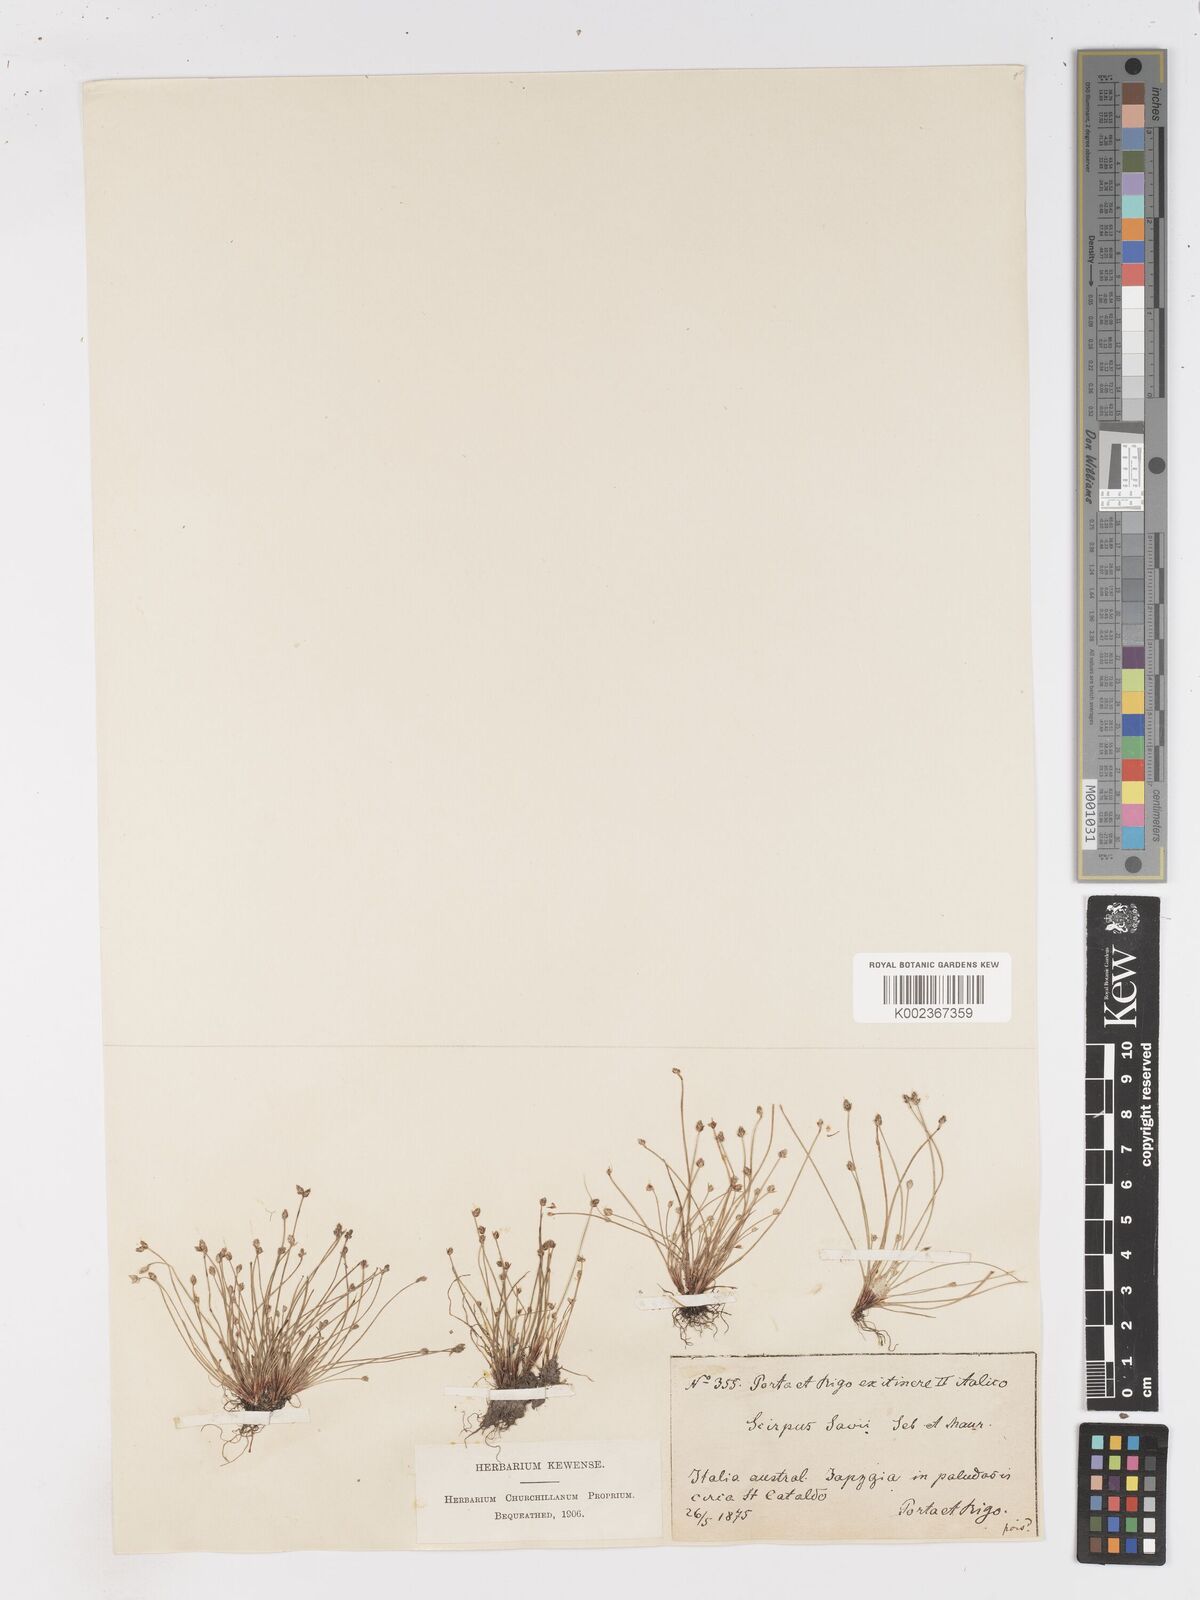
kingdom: Plantae
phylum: Tracheophyta
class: Liliopsida
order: Poales
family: Cyperaceae
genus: Isolepis
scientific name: Isolepis cernua
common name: Slender club-rush
